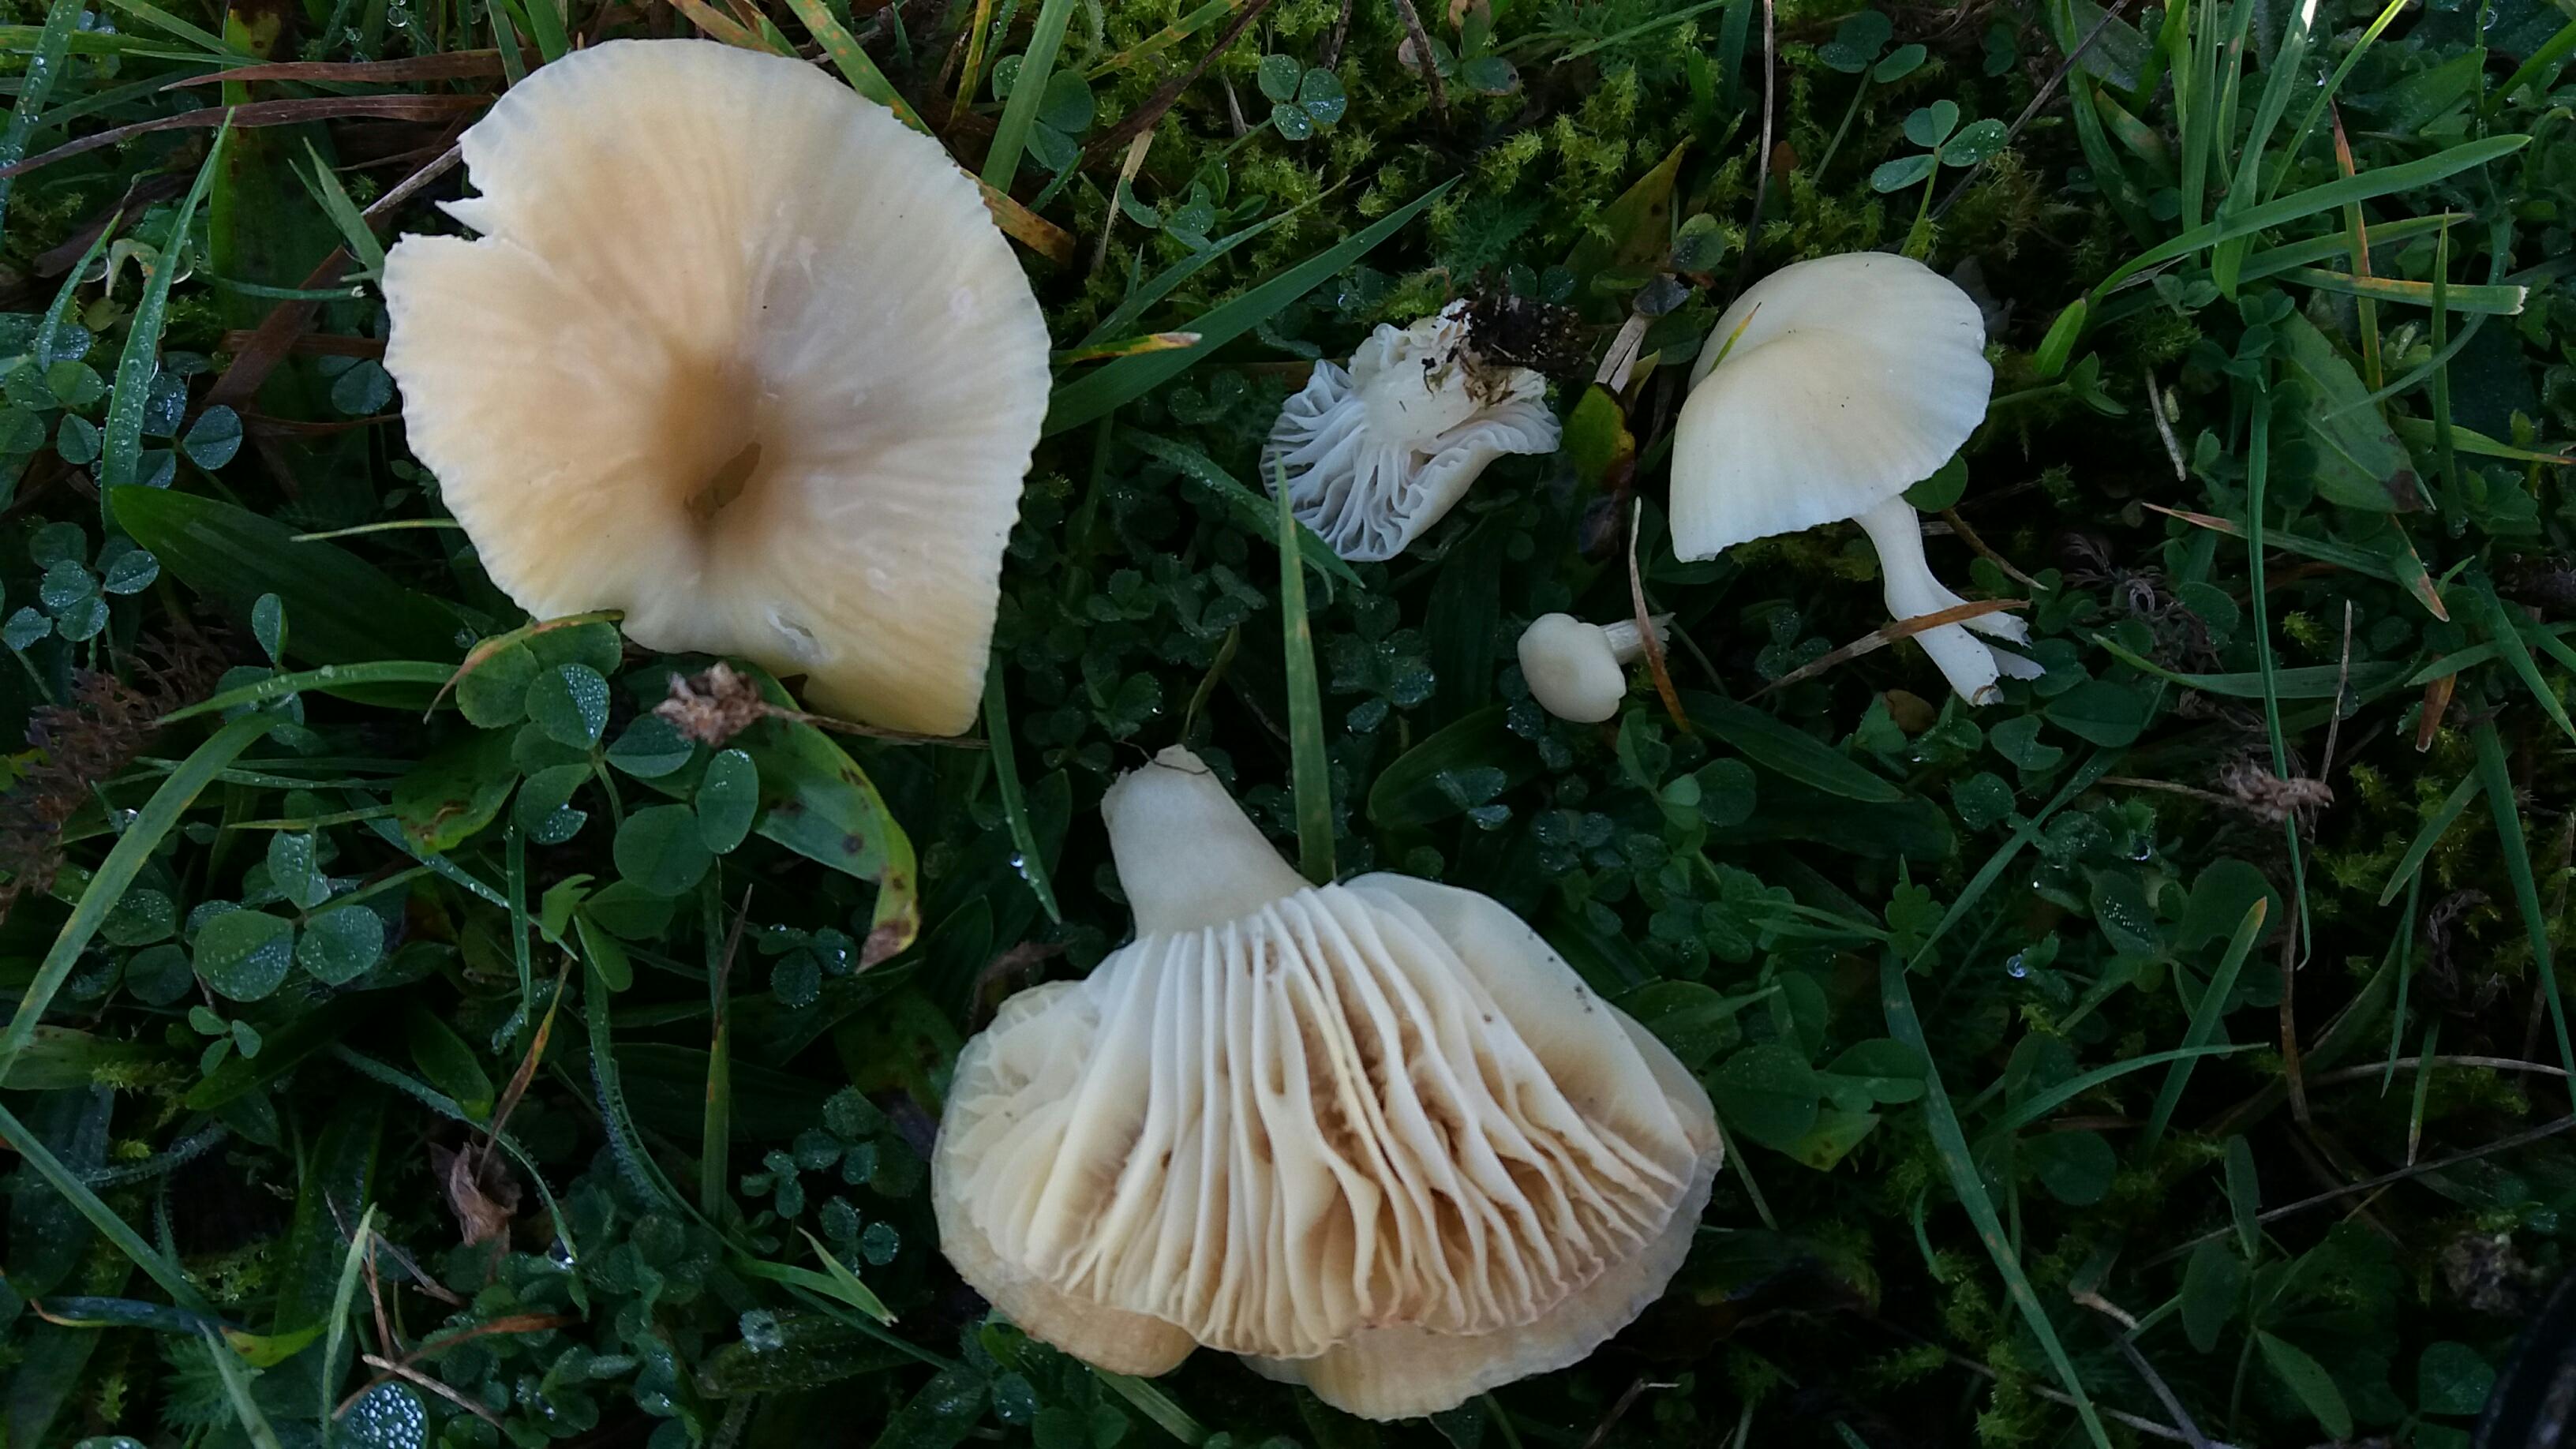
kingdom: Fungi
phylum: Basidiomycota
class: Agaricomycetes
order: Agaricales
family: Hygrophoraceae
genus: Cuphophyllus
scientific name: Cuphophyllus russocoriaceus
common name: ruslæder-vokshat
